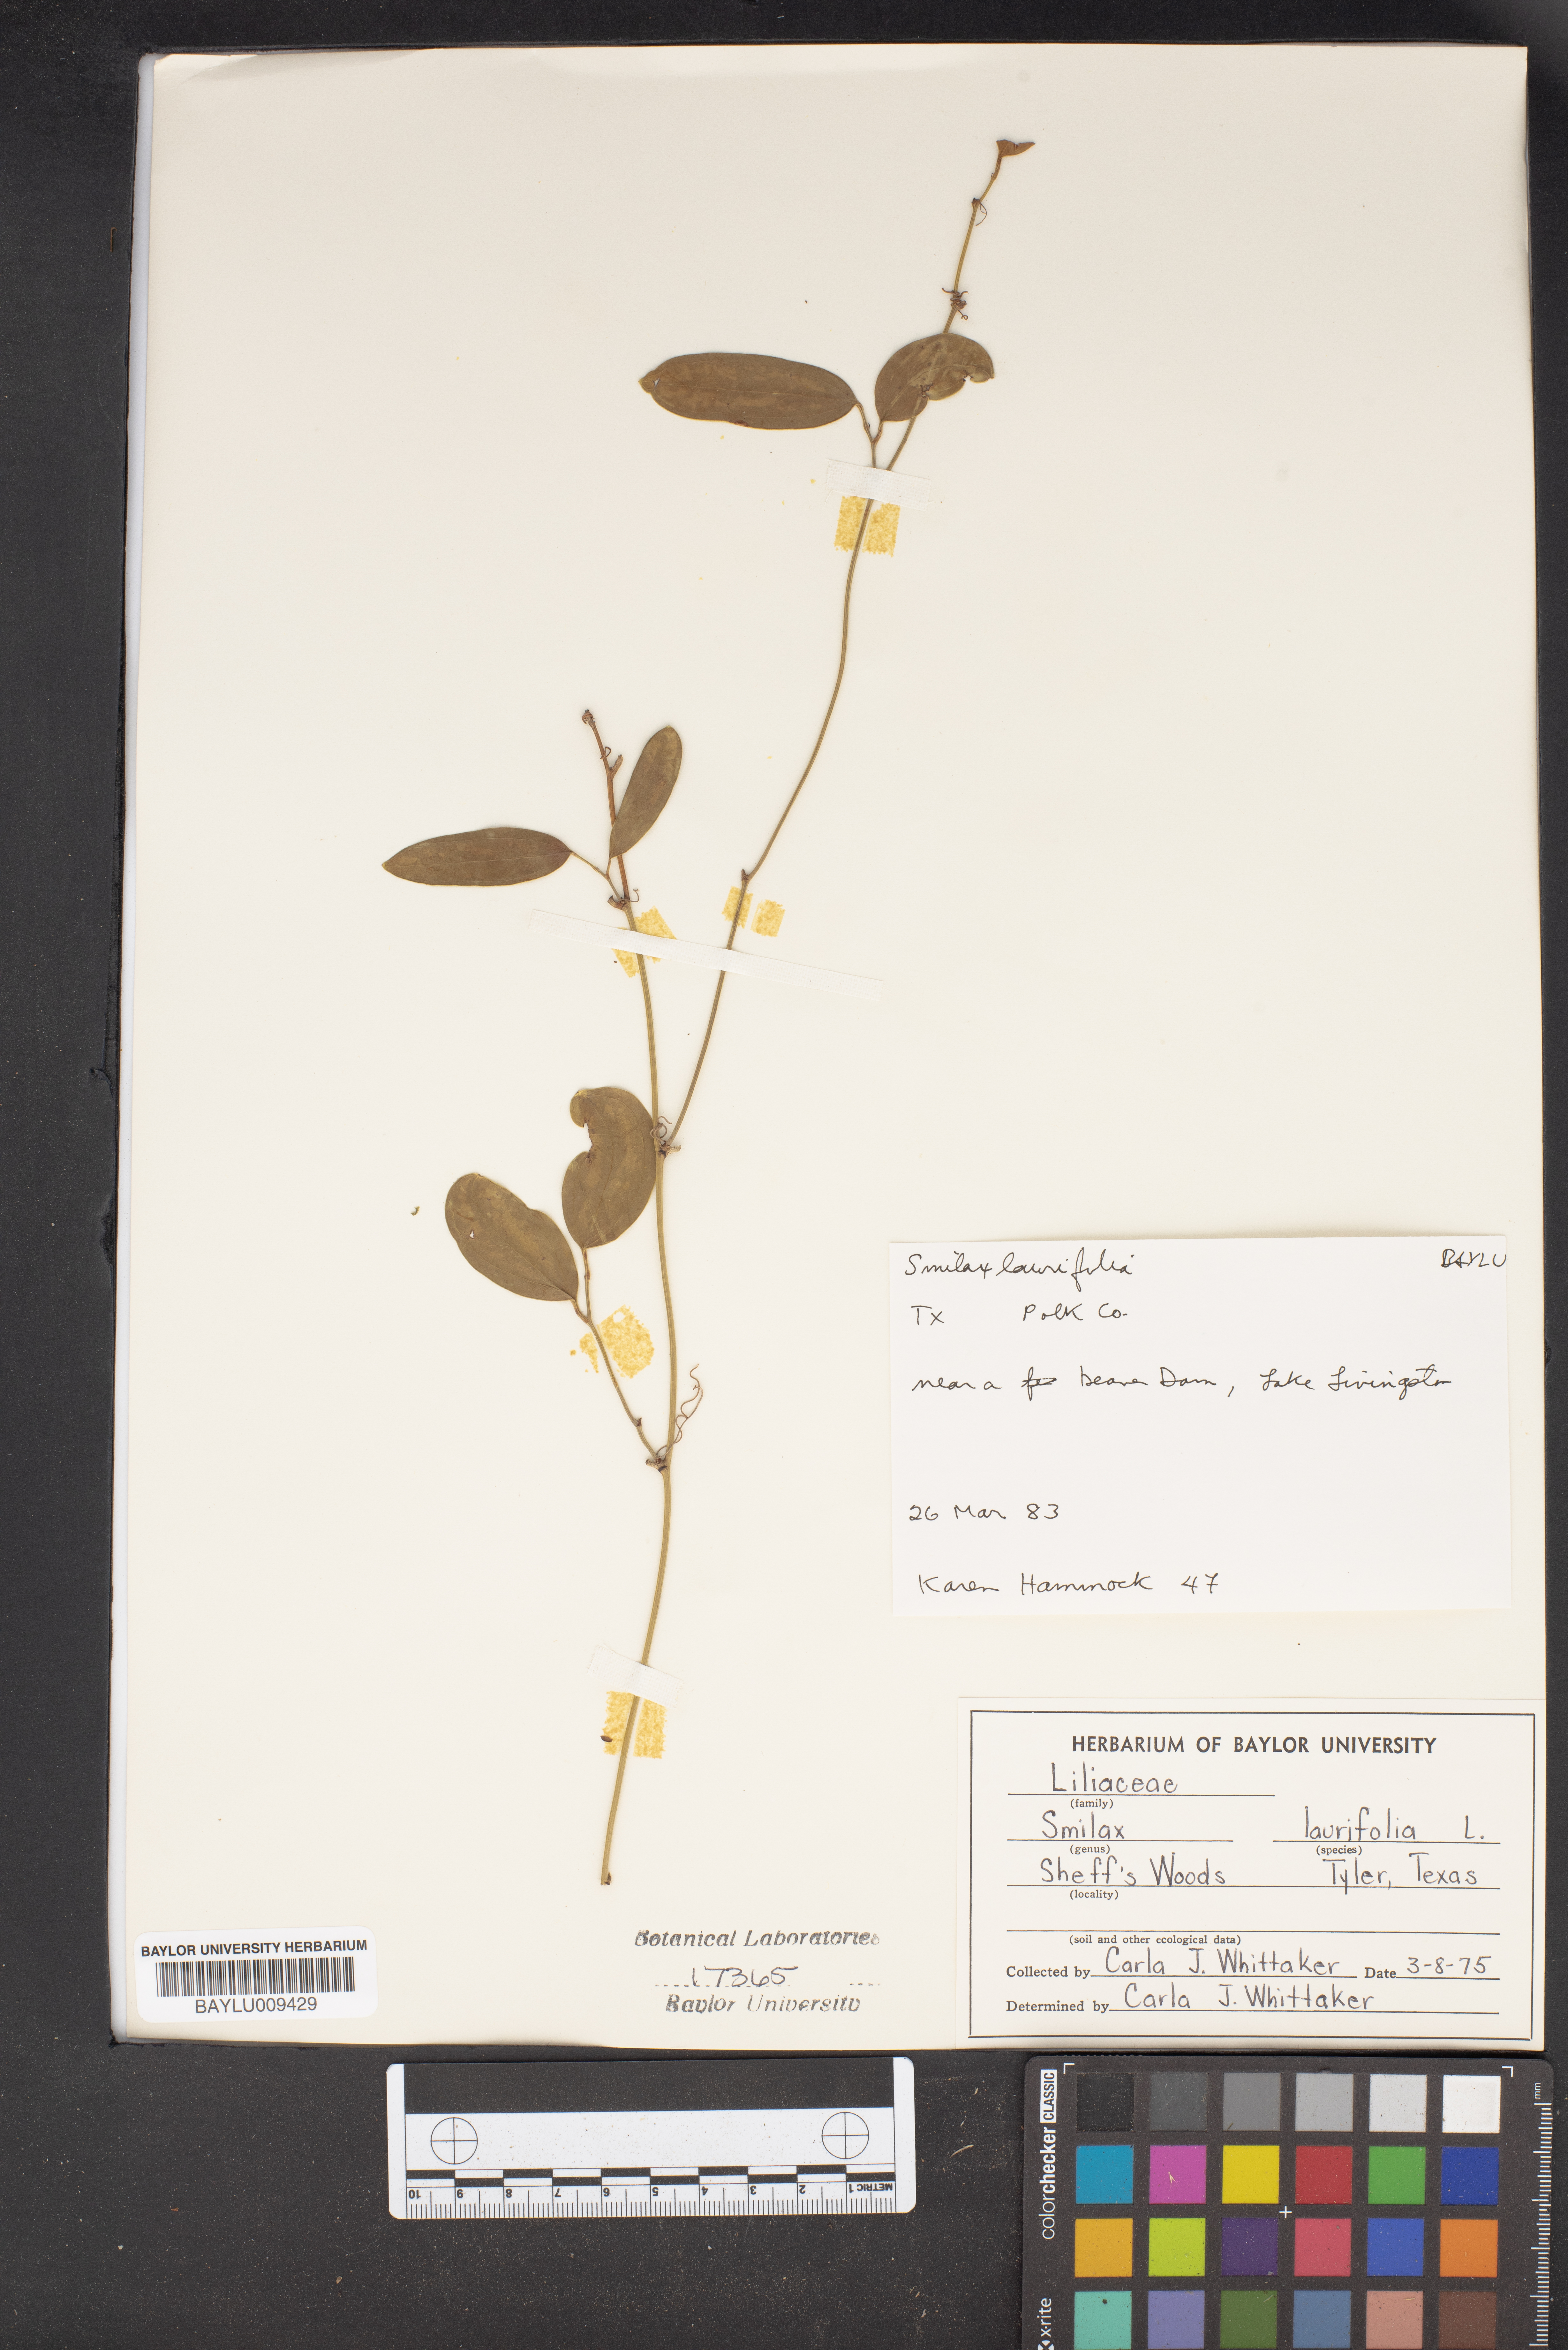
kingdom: Plantae
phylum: Tracheophyta
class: Liliopsida
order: Liliales
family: Smilacaceae
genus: Smilax
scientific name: Smilax laurifolia
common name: Bamboovine
